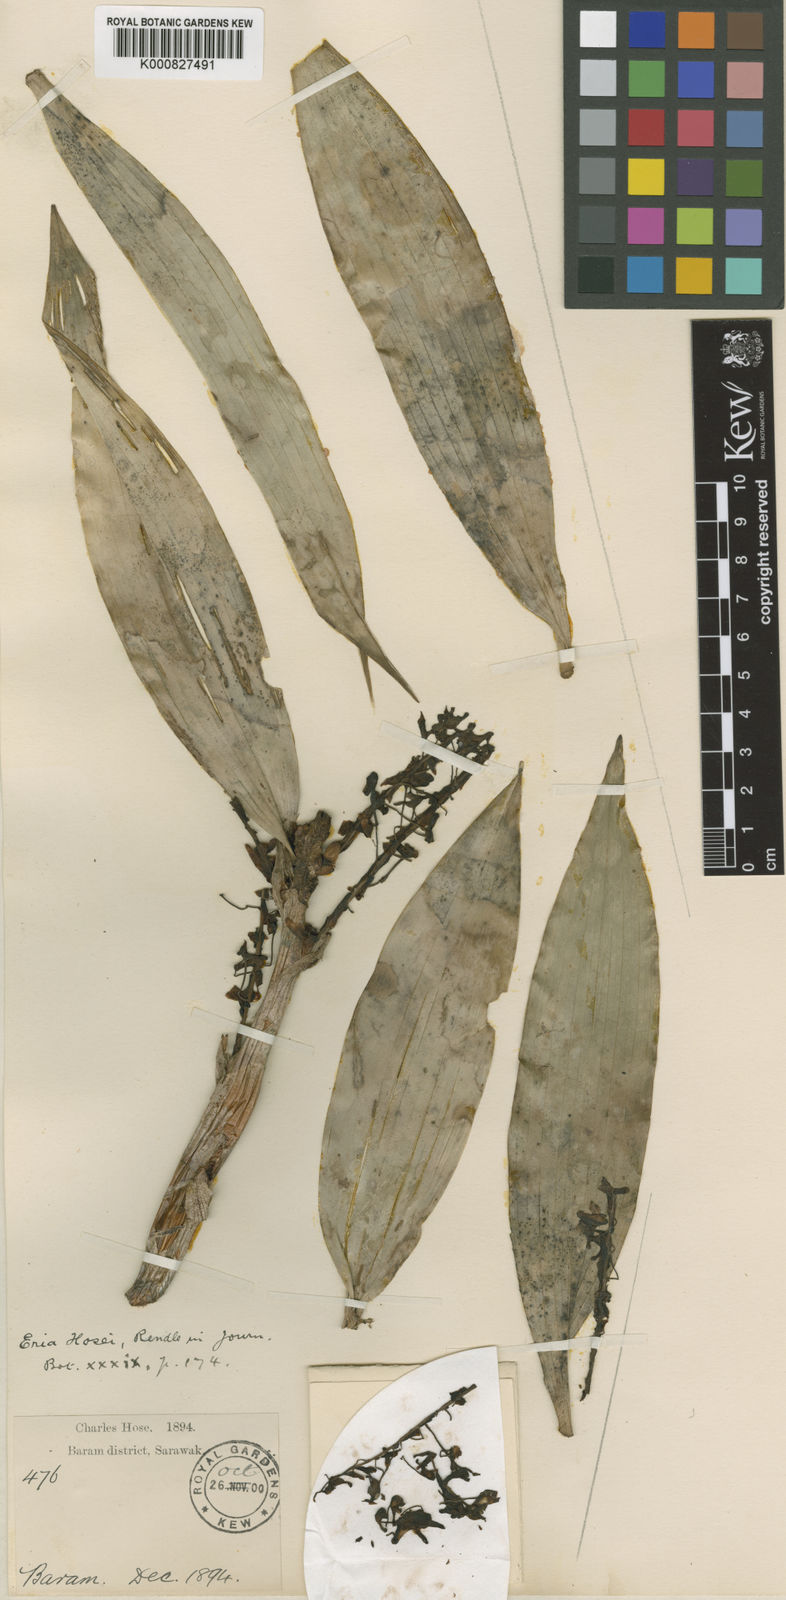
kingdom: Plantae
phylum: Tracheophyta
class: Liliopsida
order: Asparagales
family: Orchidaceae
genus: Pinalia
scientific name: Pinalia hosei
